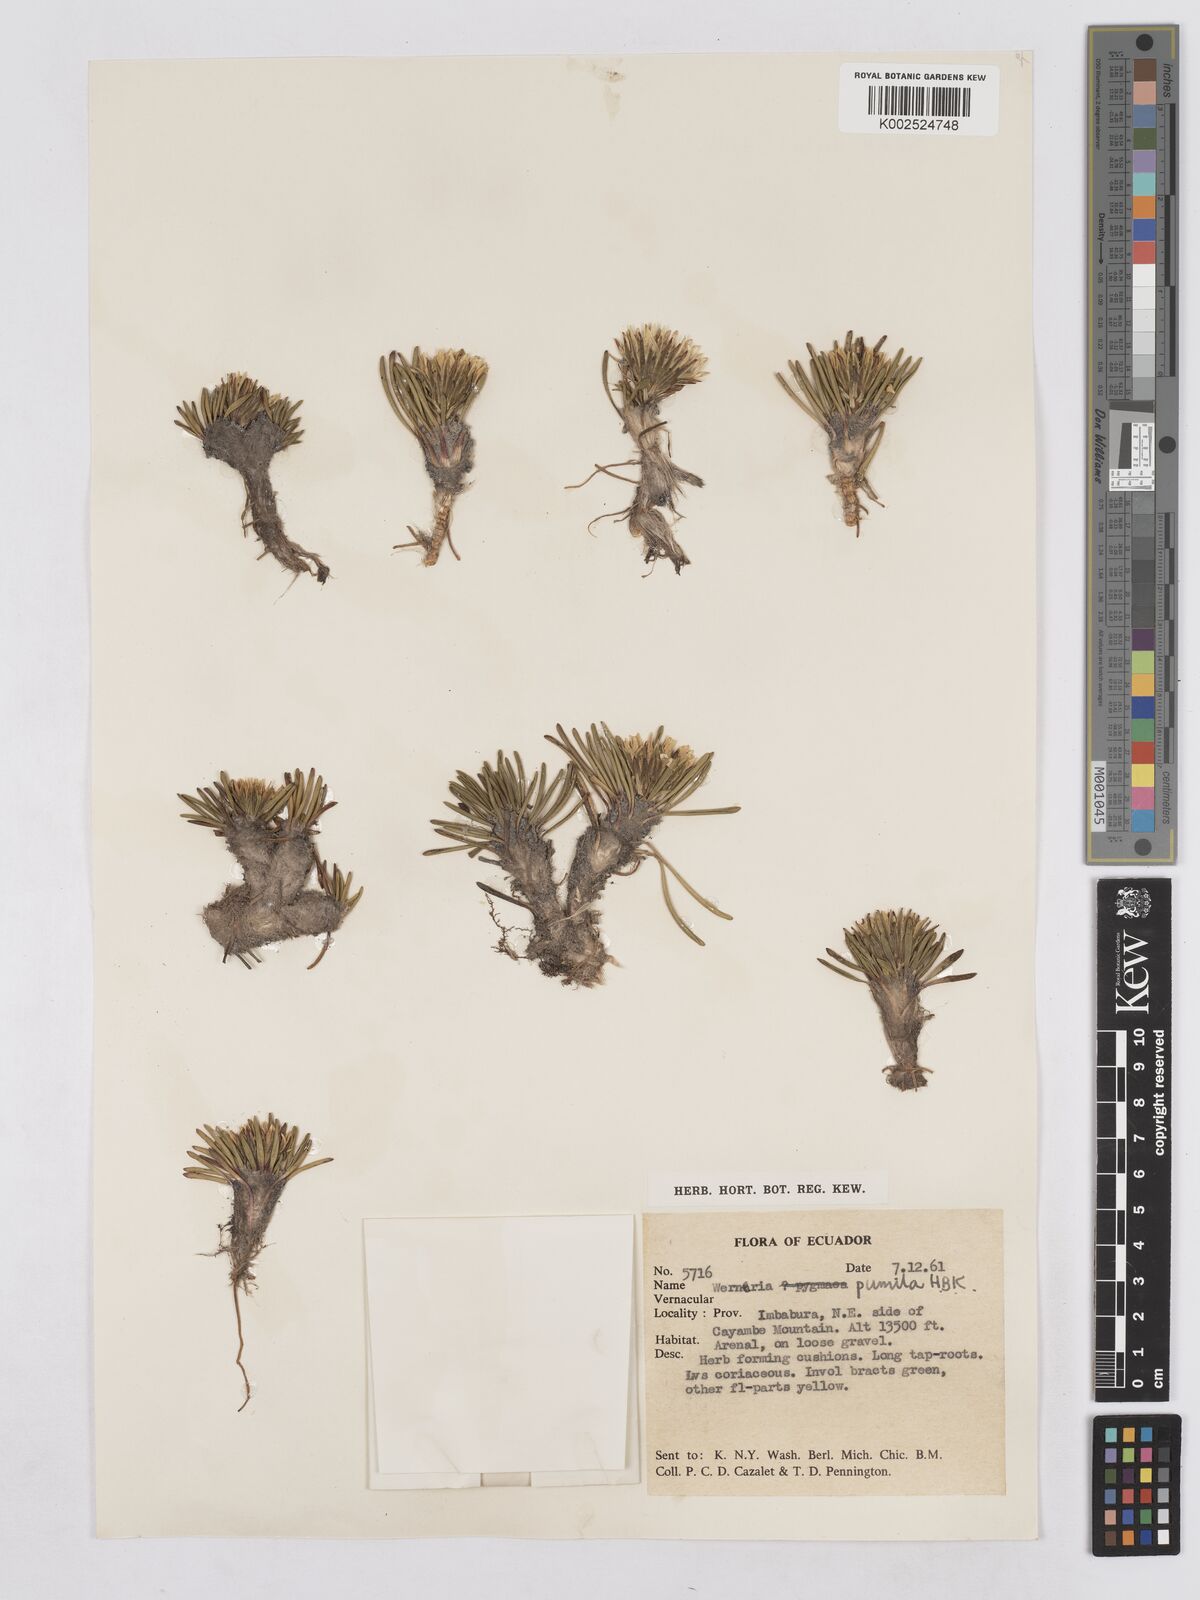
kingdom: Plantae
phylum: Tracheophyta
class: Magnoliopsida
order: Asterales
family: Asteraceae
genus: Rockhausenia
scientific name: Rockhausenia pumila
